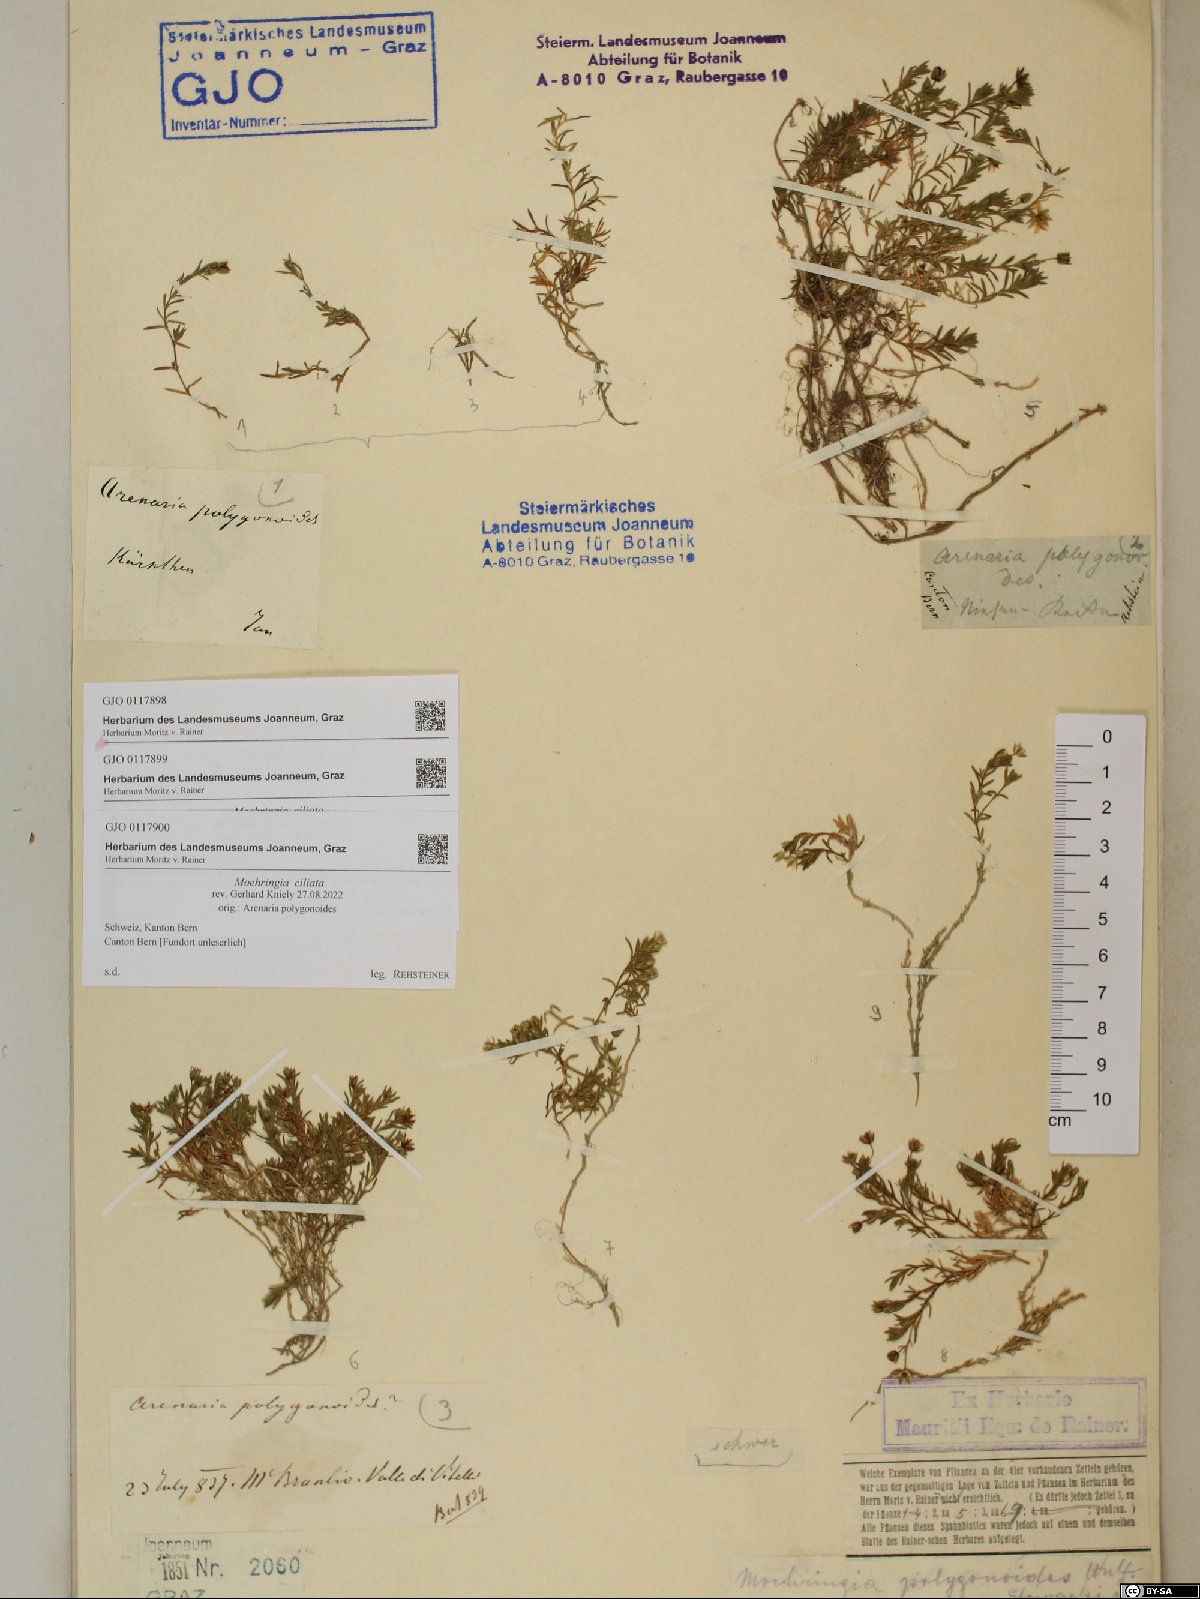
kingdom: Plantae
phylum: Tracheophyta
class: Magnoliopsida
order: Caryophyllales
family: Caryophyllaceae
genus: Moehringia
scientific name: Moehringia ciliata
